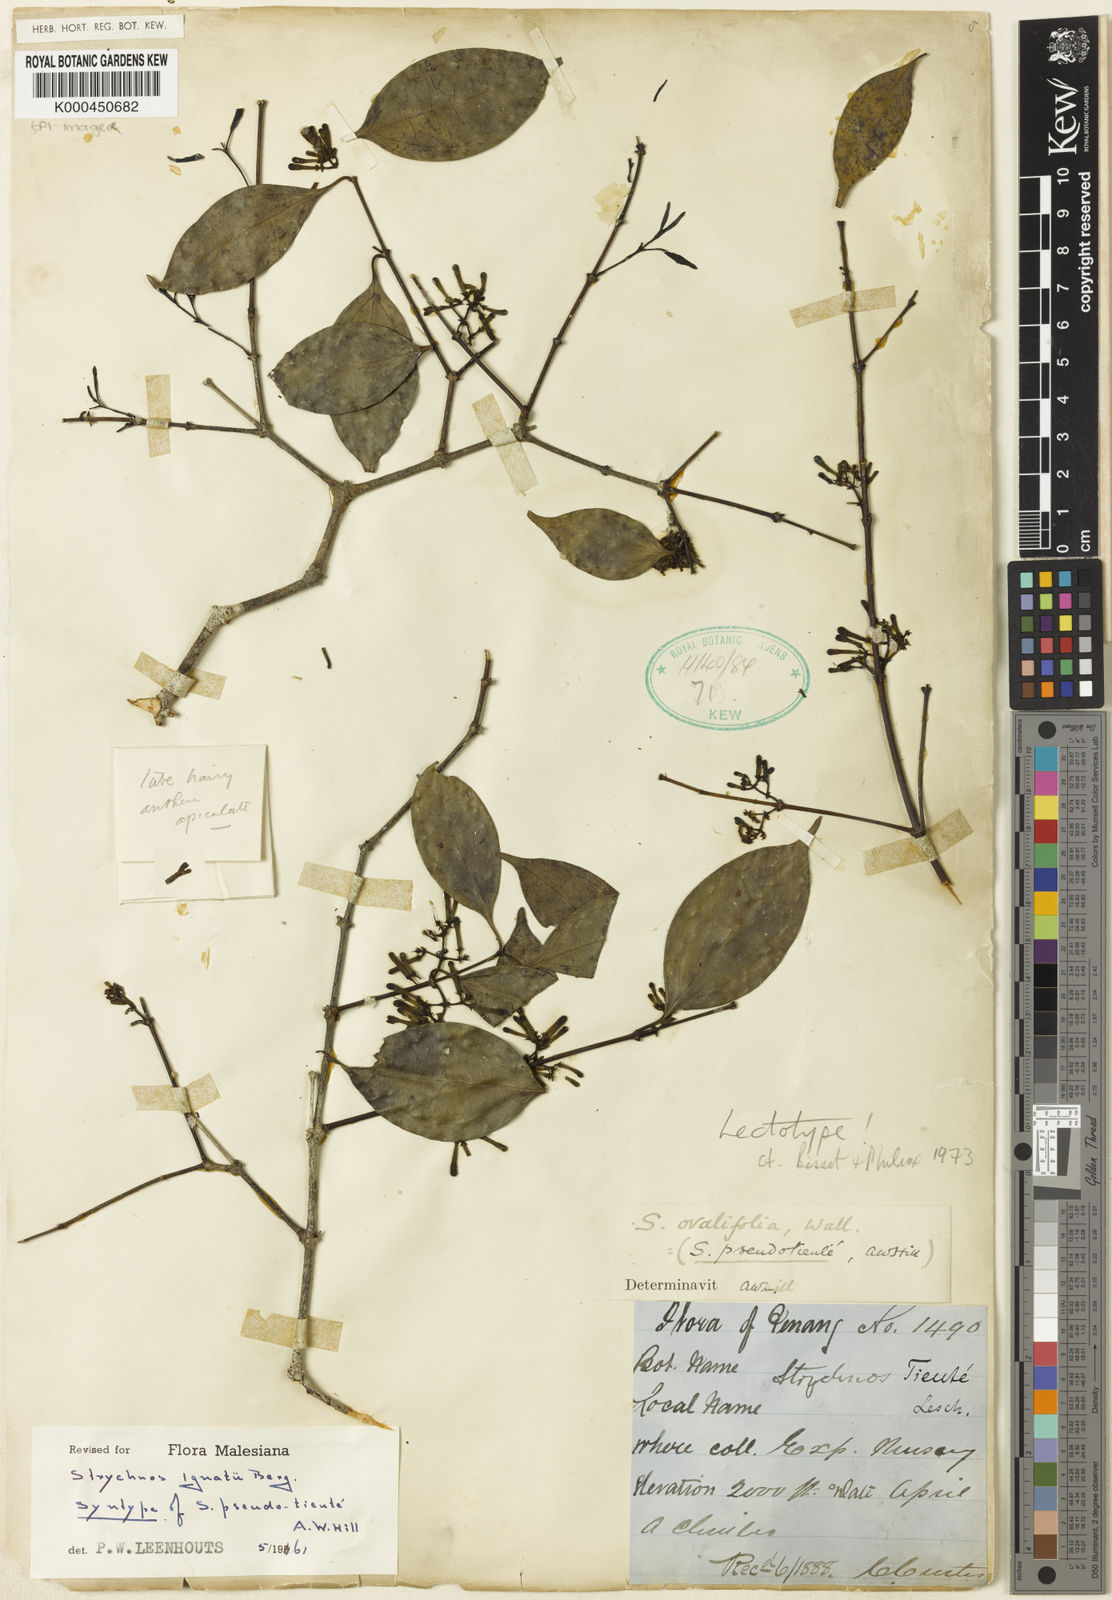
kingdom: Plantae
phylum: Tracheophyta
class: Magnoliopsida
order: Gentianales
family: Loganiaceae
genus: Strychnos
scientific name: Strychnos ignatii
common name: Ignatius-bean
